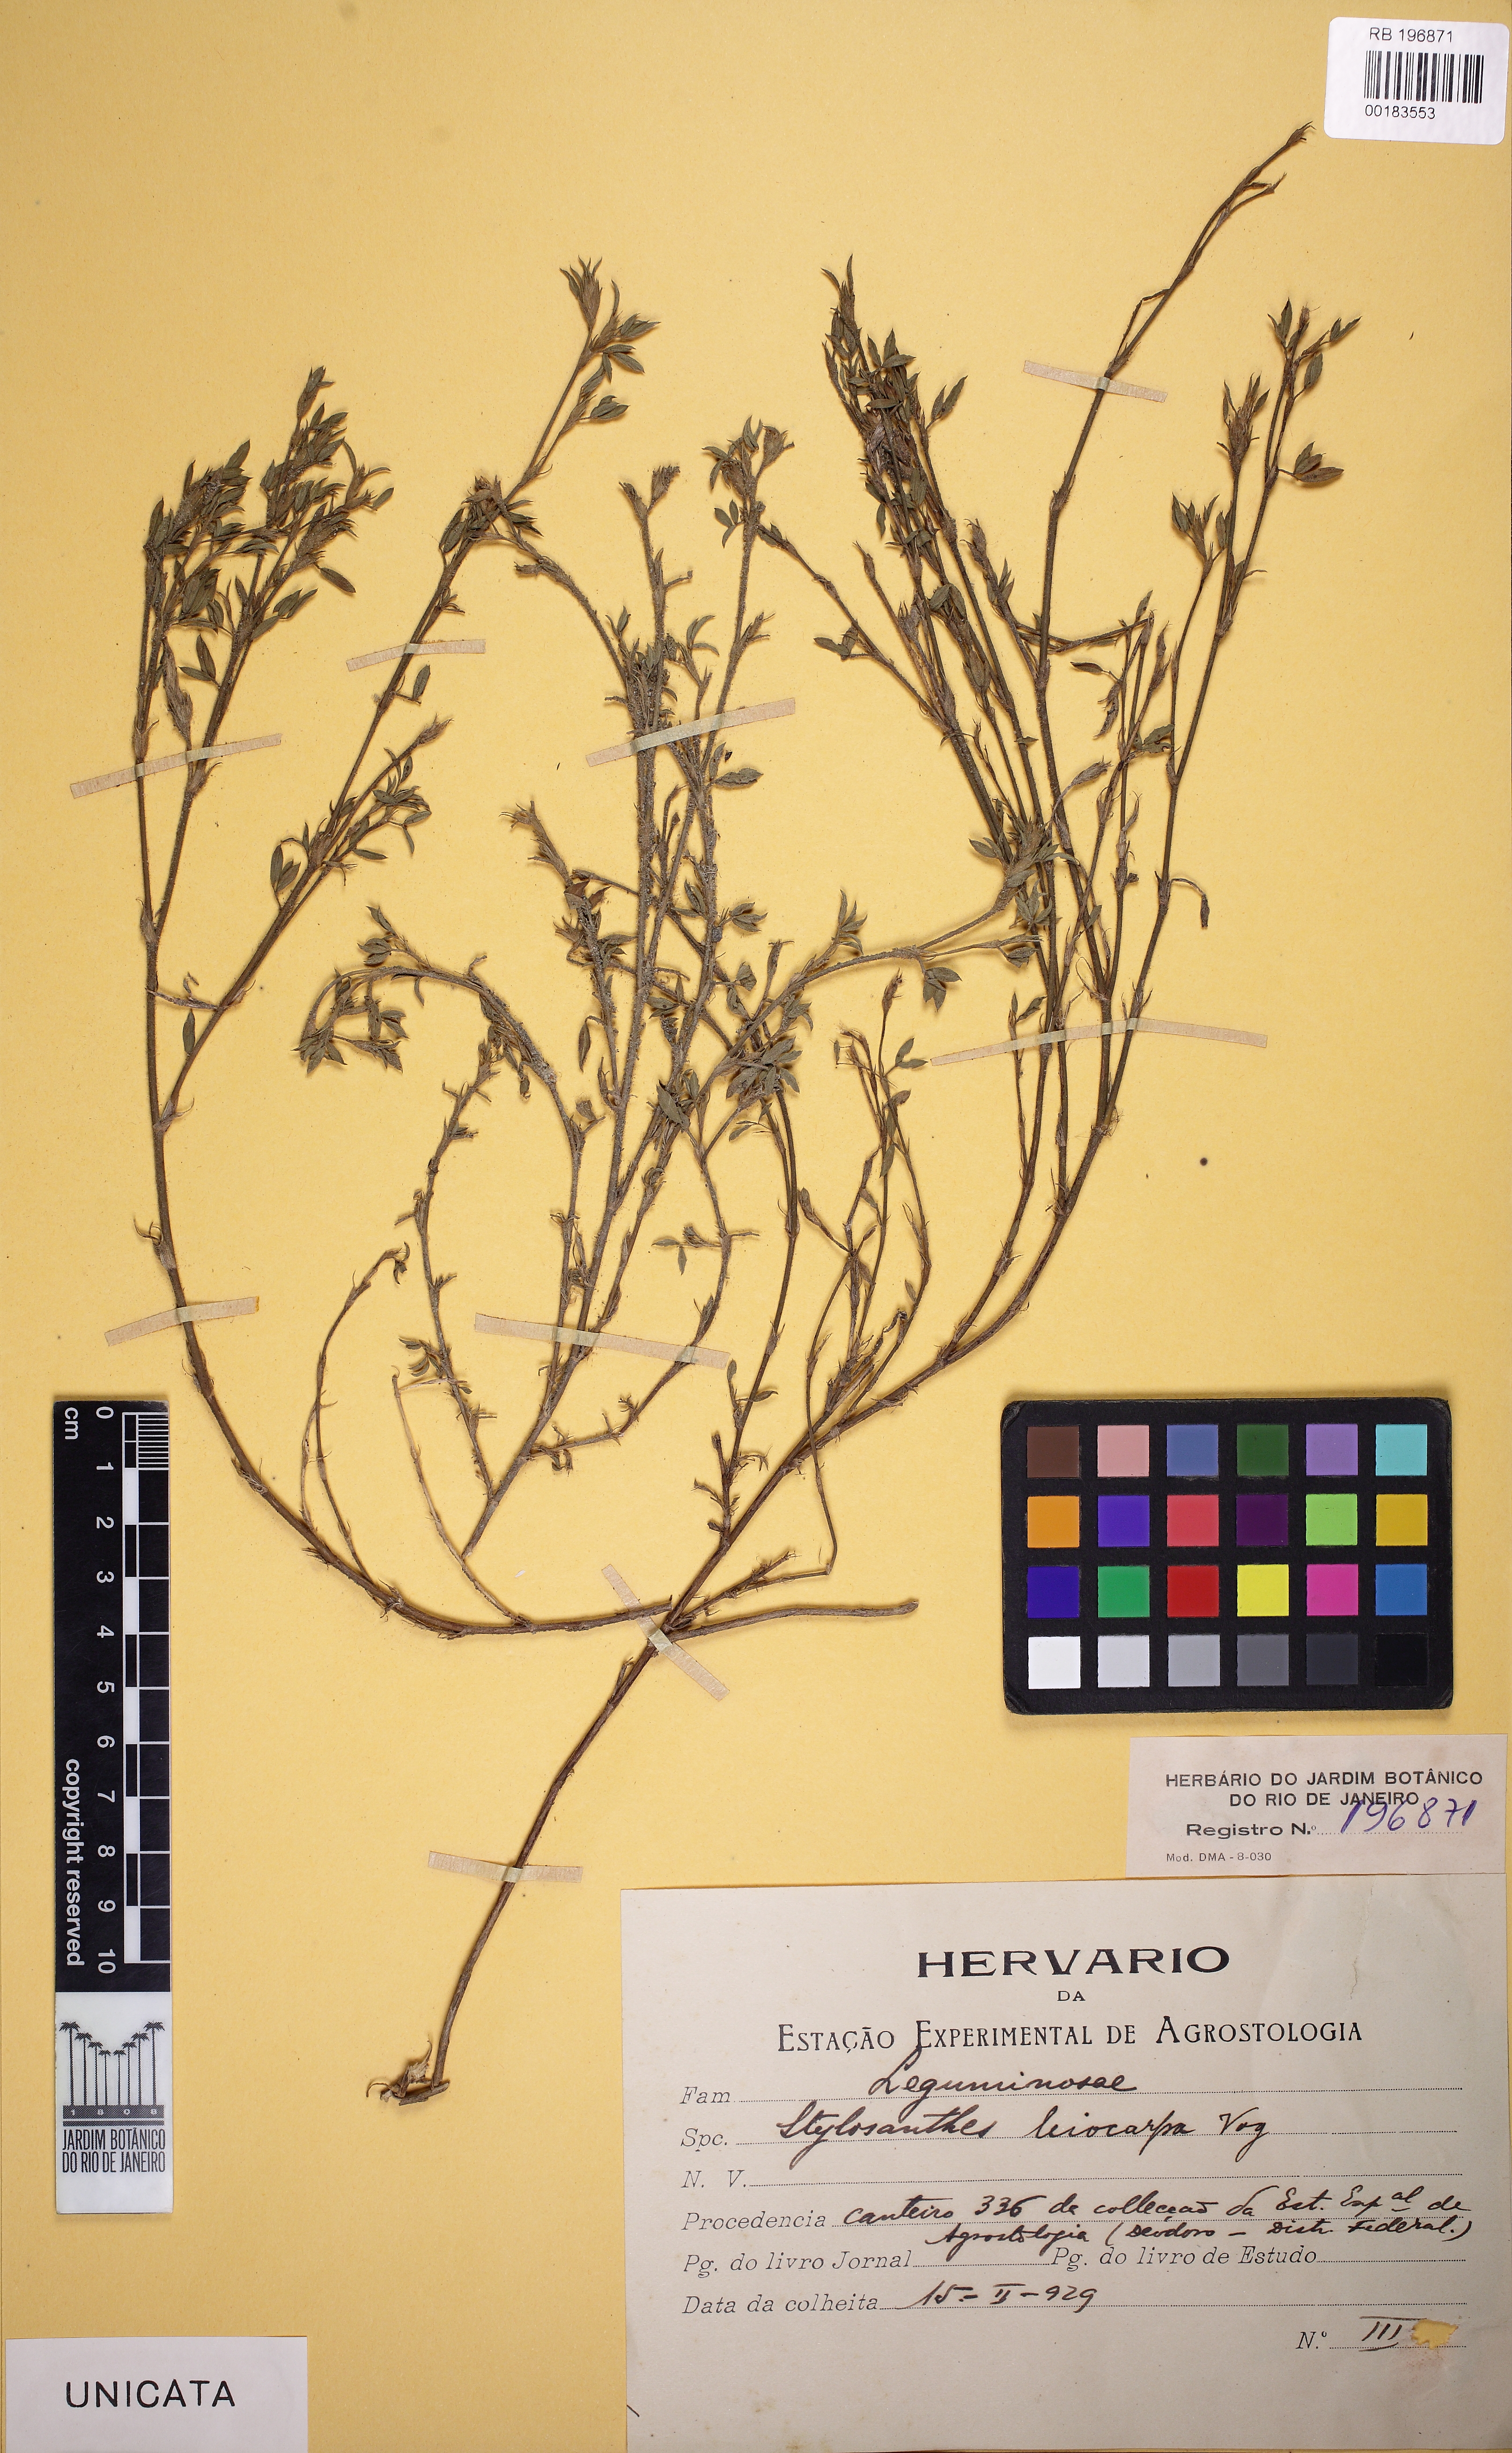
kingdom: Plantae
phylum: Tracheophyta
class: Magnoliopsida
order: Fabales
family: Fabaceae
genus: Stylosanthes
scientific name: Stylosanthes leiocarpa
